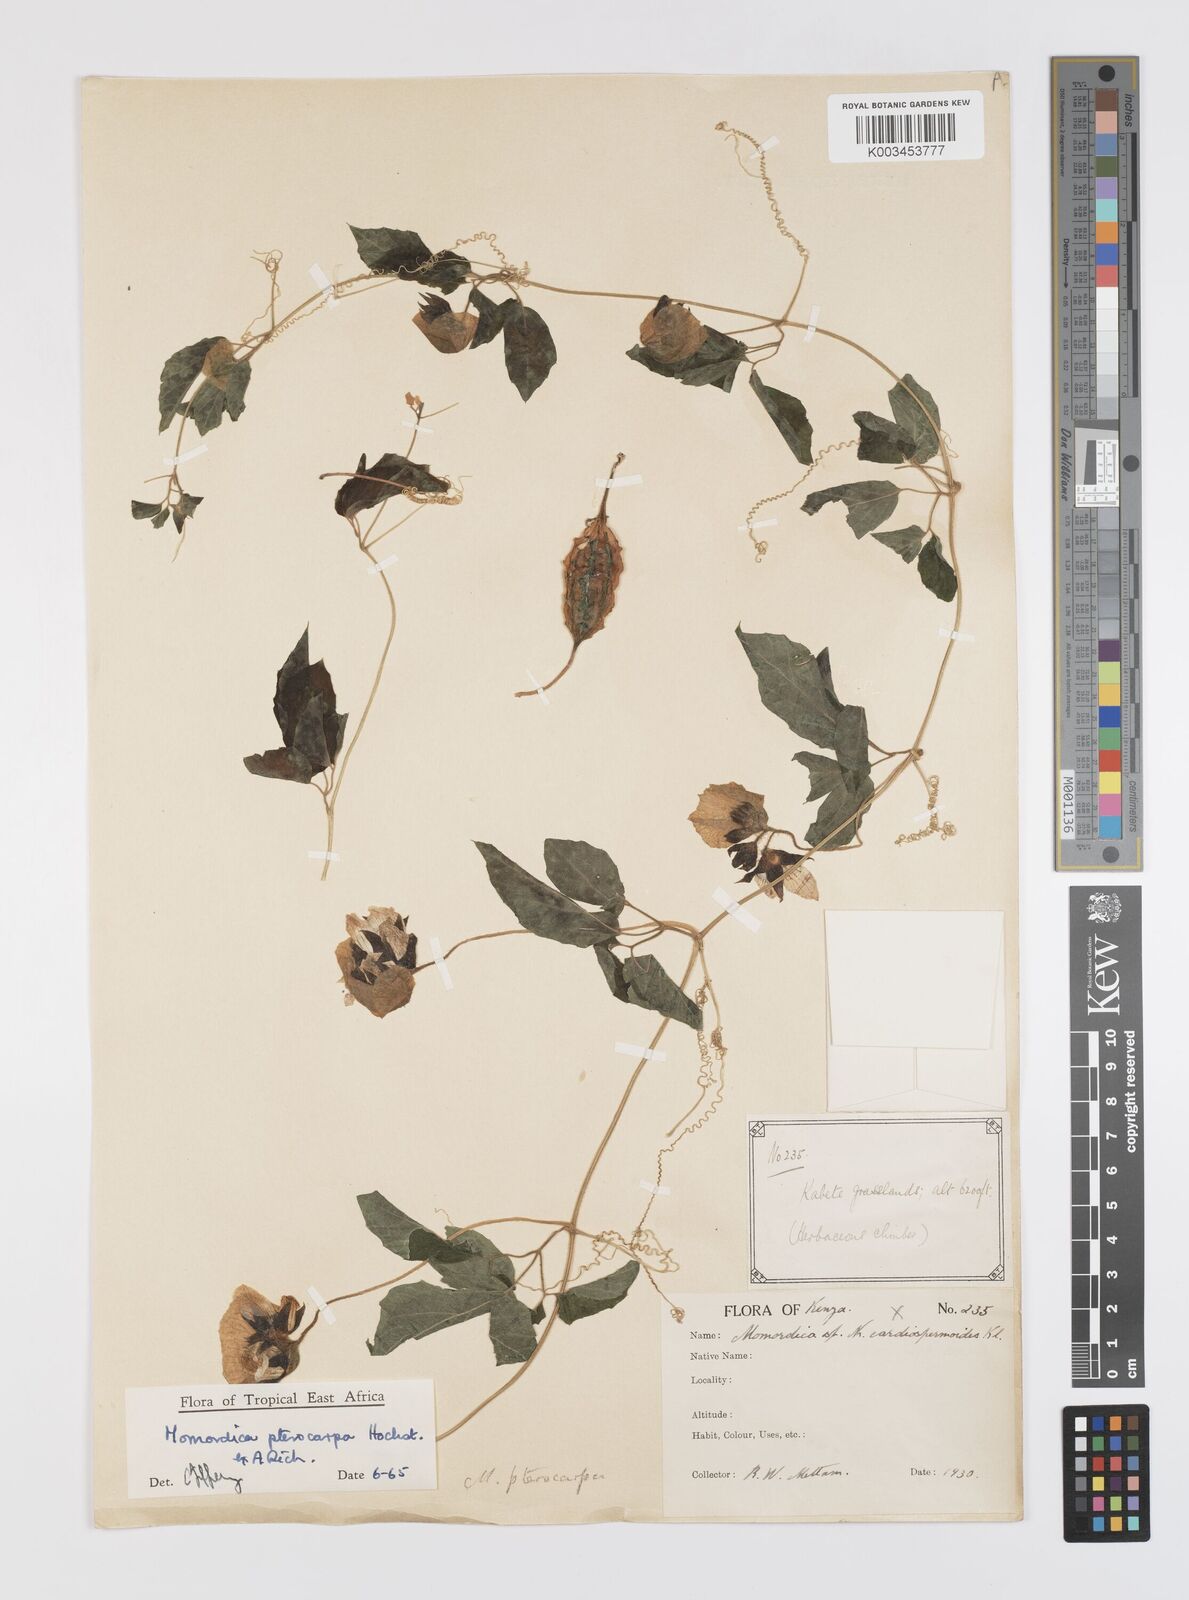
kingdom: Plantae
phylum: Tracheophyta
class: Magnoliopsida
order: Cucurbitales
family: Cucurbitaceae
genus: Momordica
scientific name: Momordica pterocarpa
